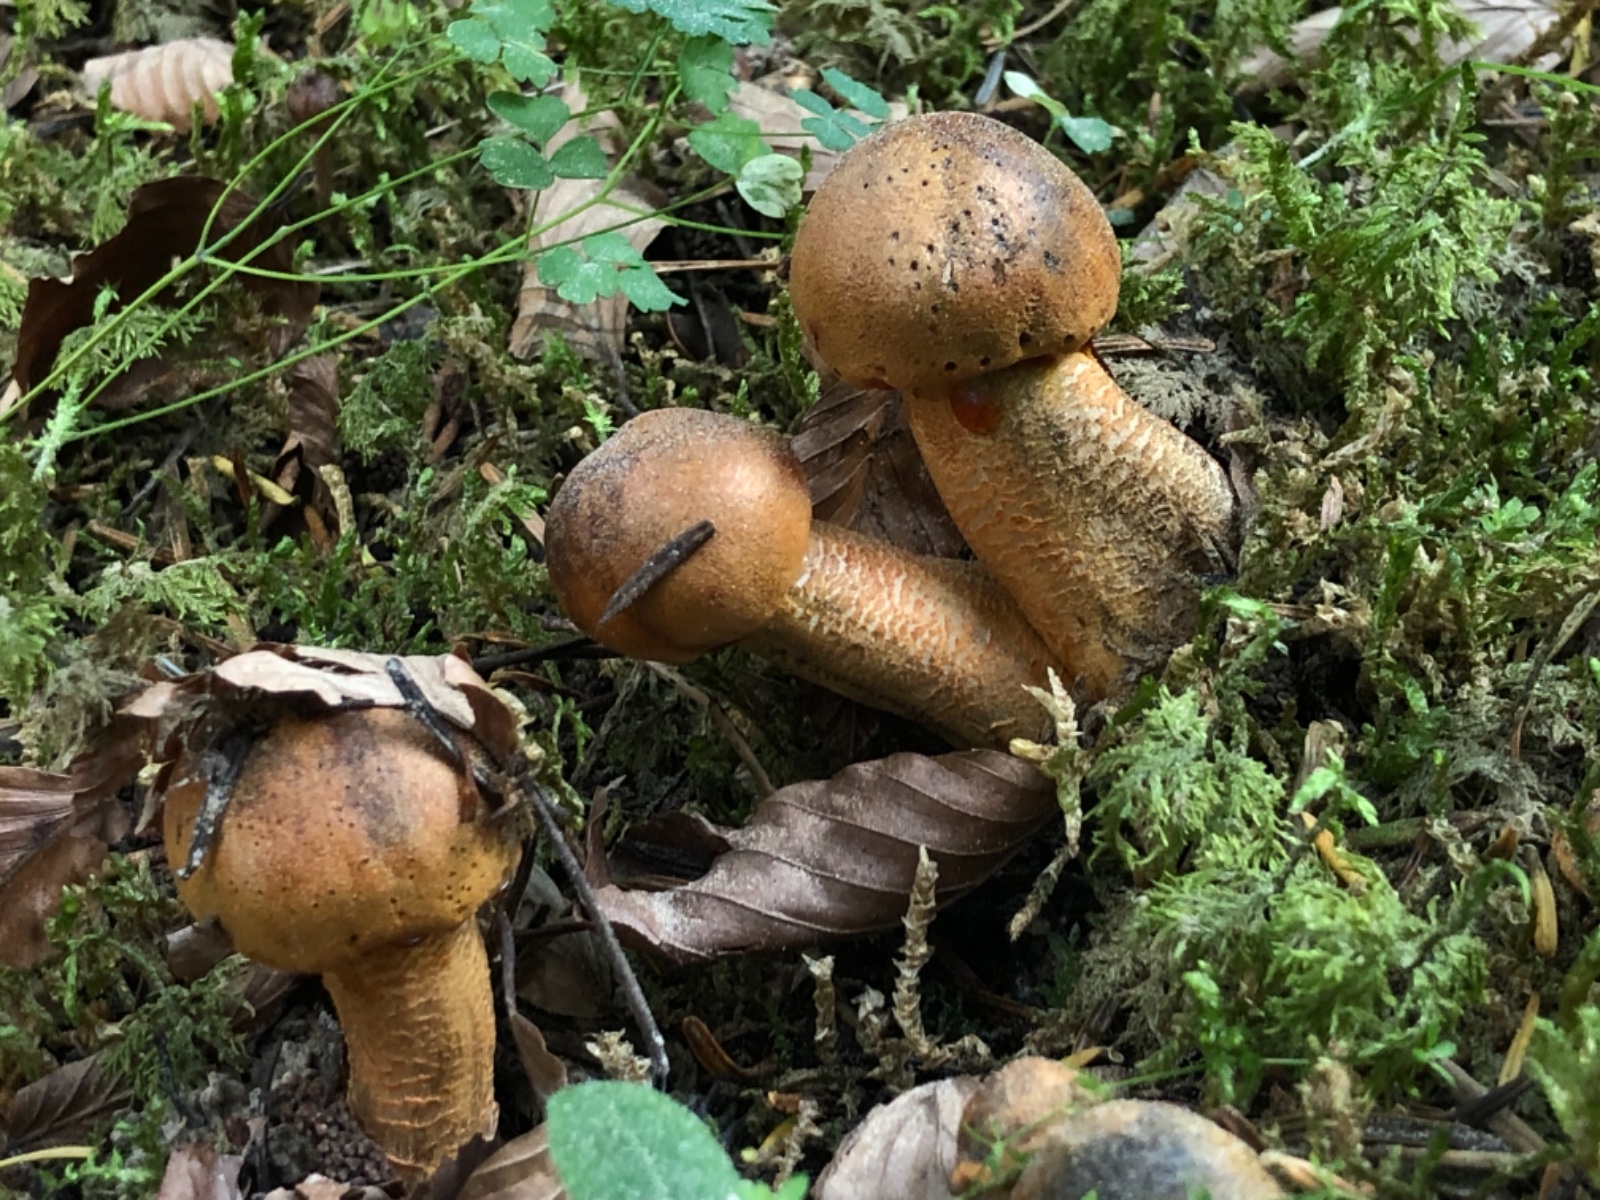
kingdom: Fungi
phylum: Basidiomycota
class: Agaricomycetes
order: Agaricales
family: Tricholomataceae
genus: Tricholoma
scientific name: Tricholoma aurantium
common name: orangegul ridderhat
